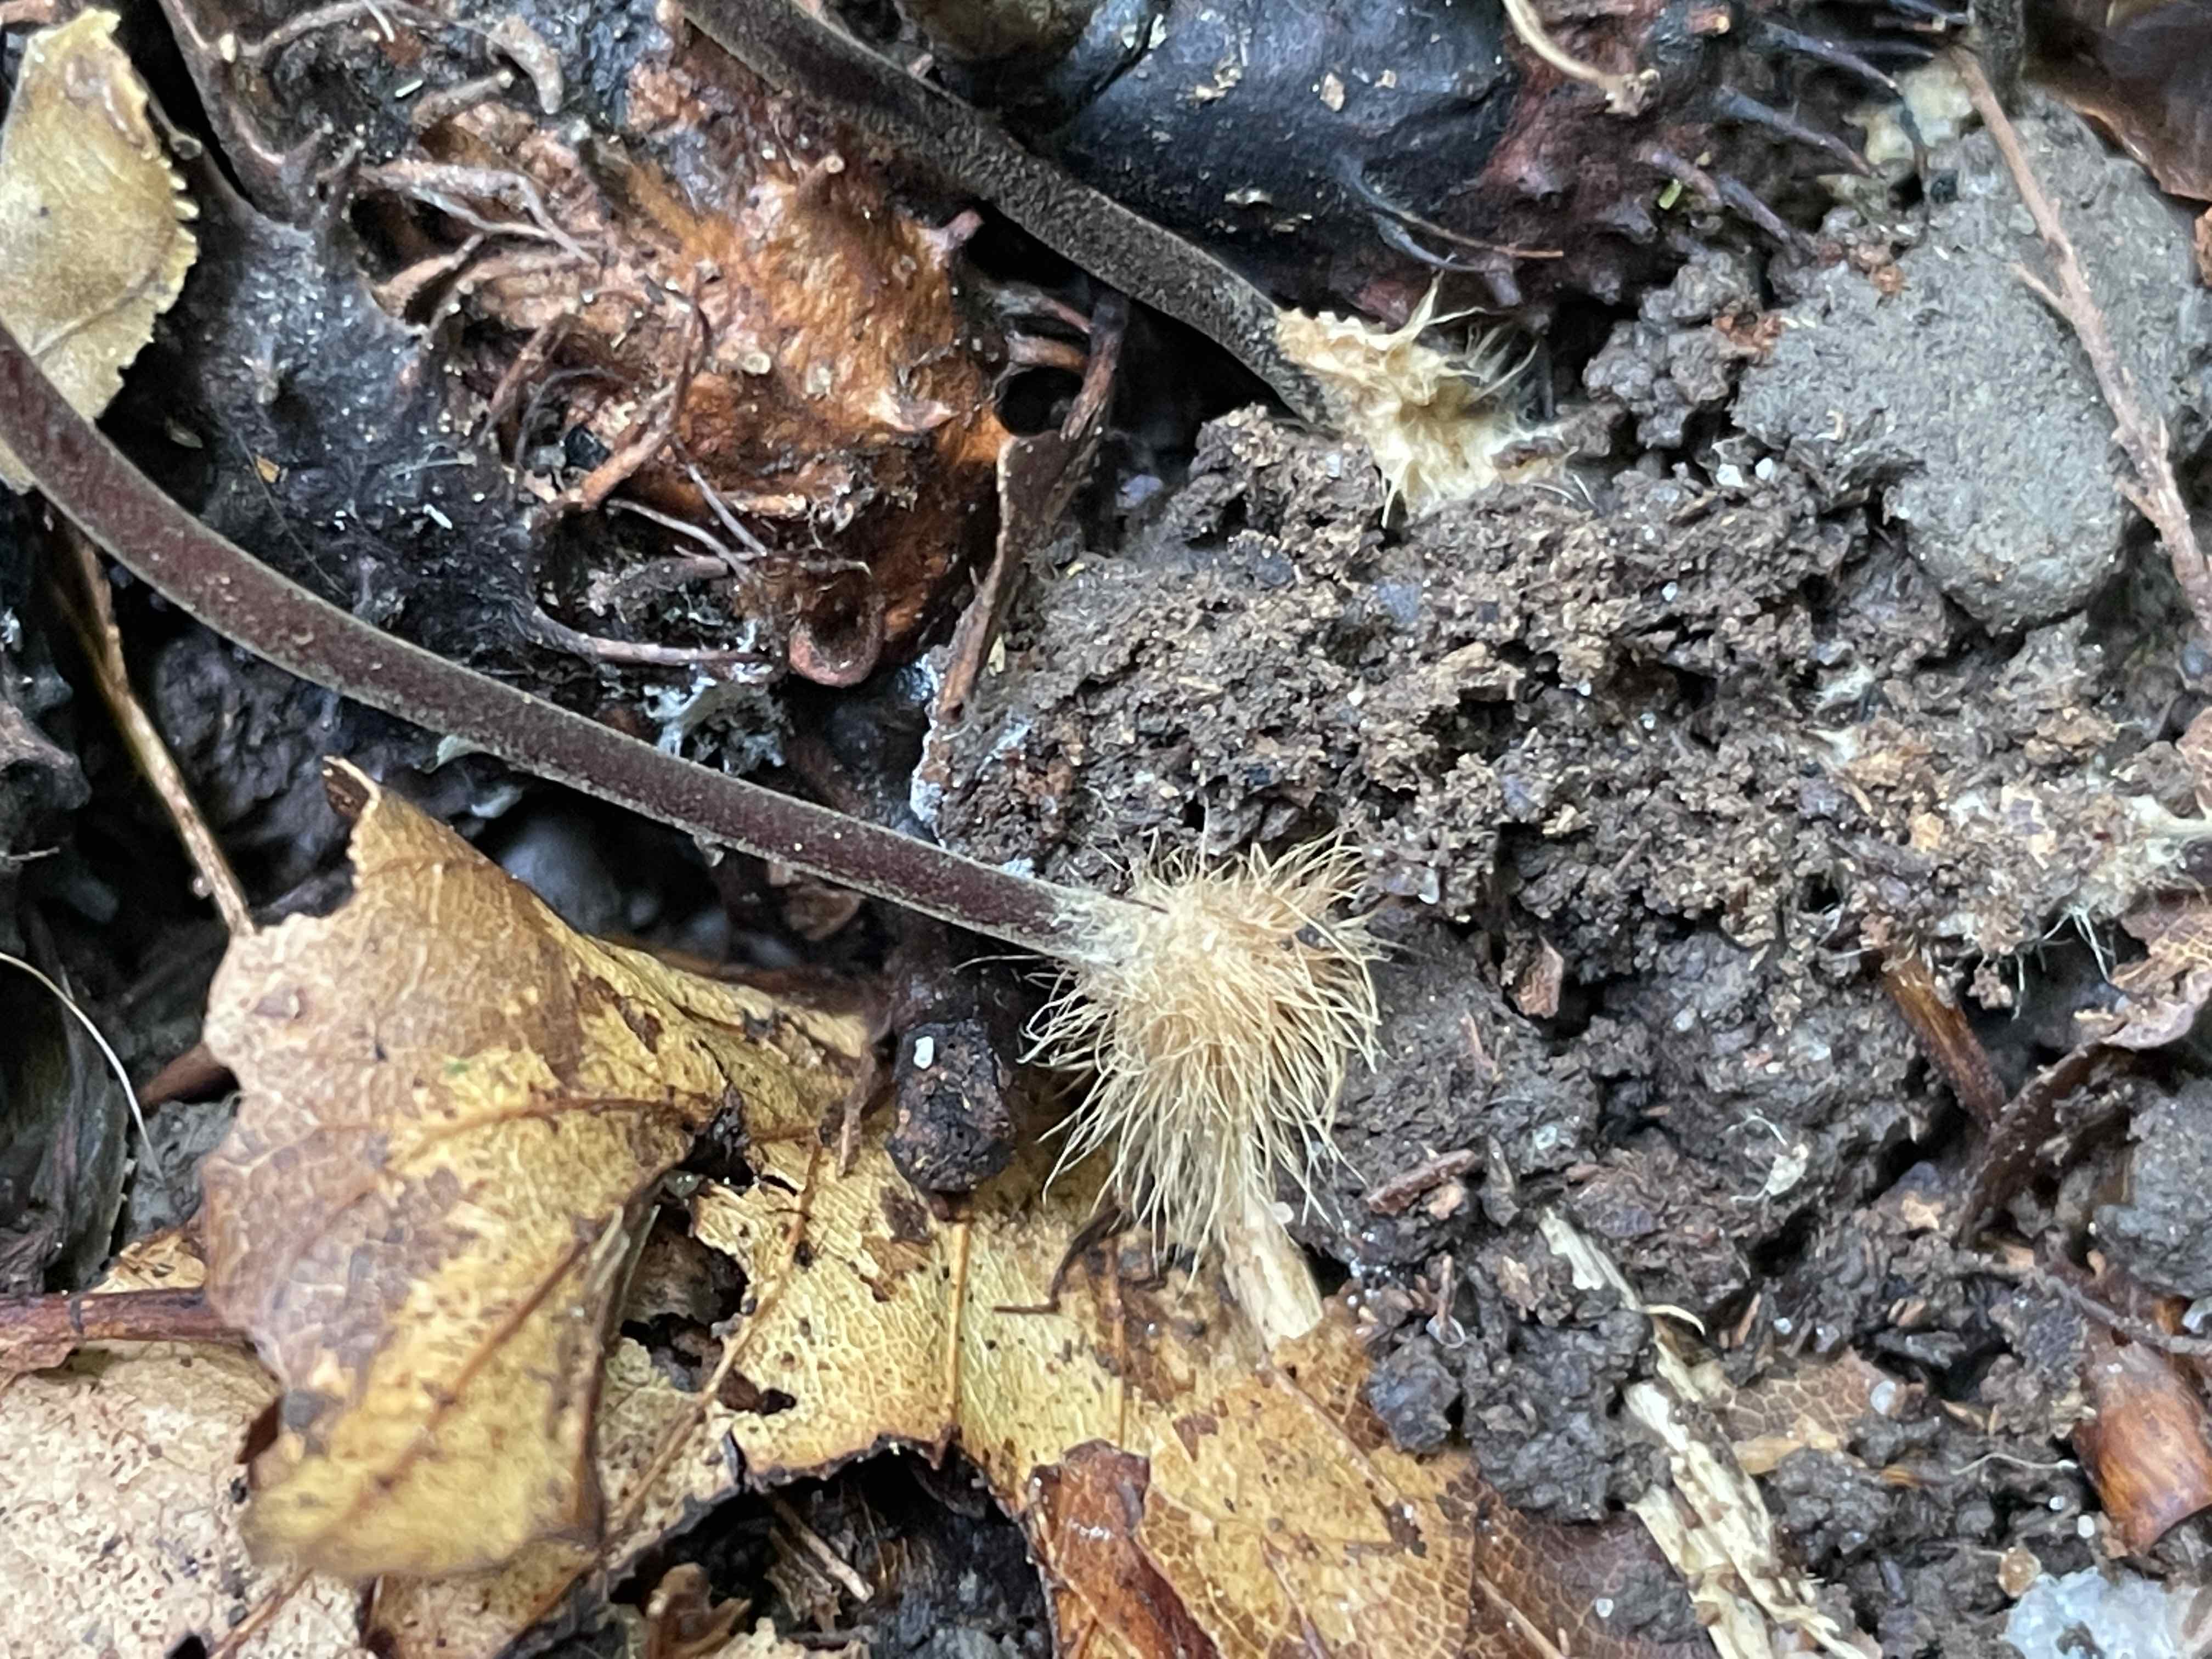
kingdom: Fungi
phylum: Basidiomycota
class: Agaricomycetes
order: Agaricales
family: Marasmiaceae
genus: Marasmius
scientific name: Marasmius torquescens
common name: filtfodet bruskhat
